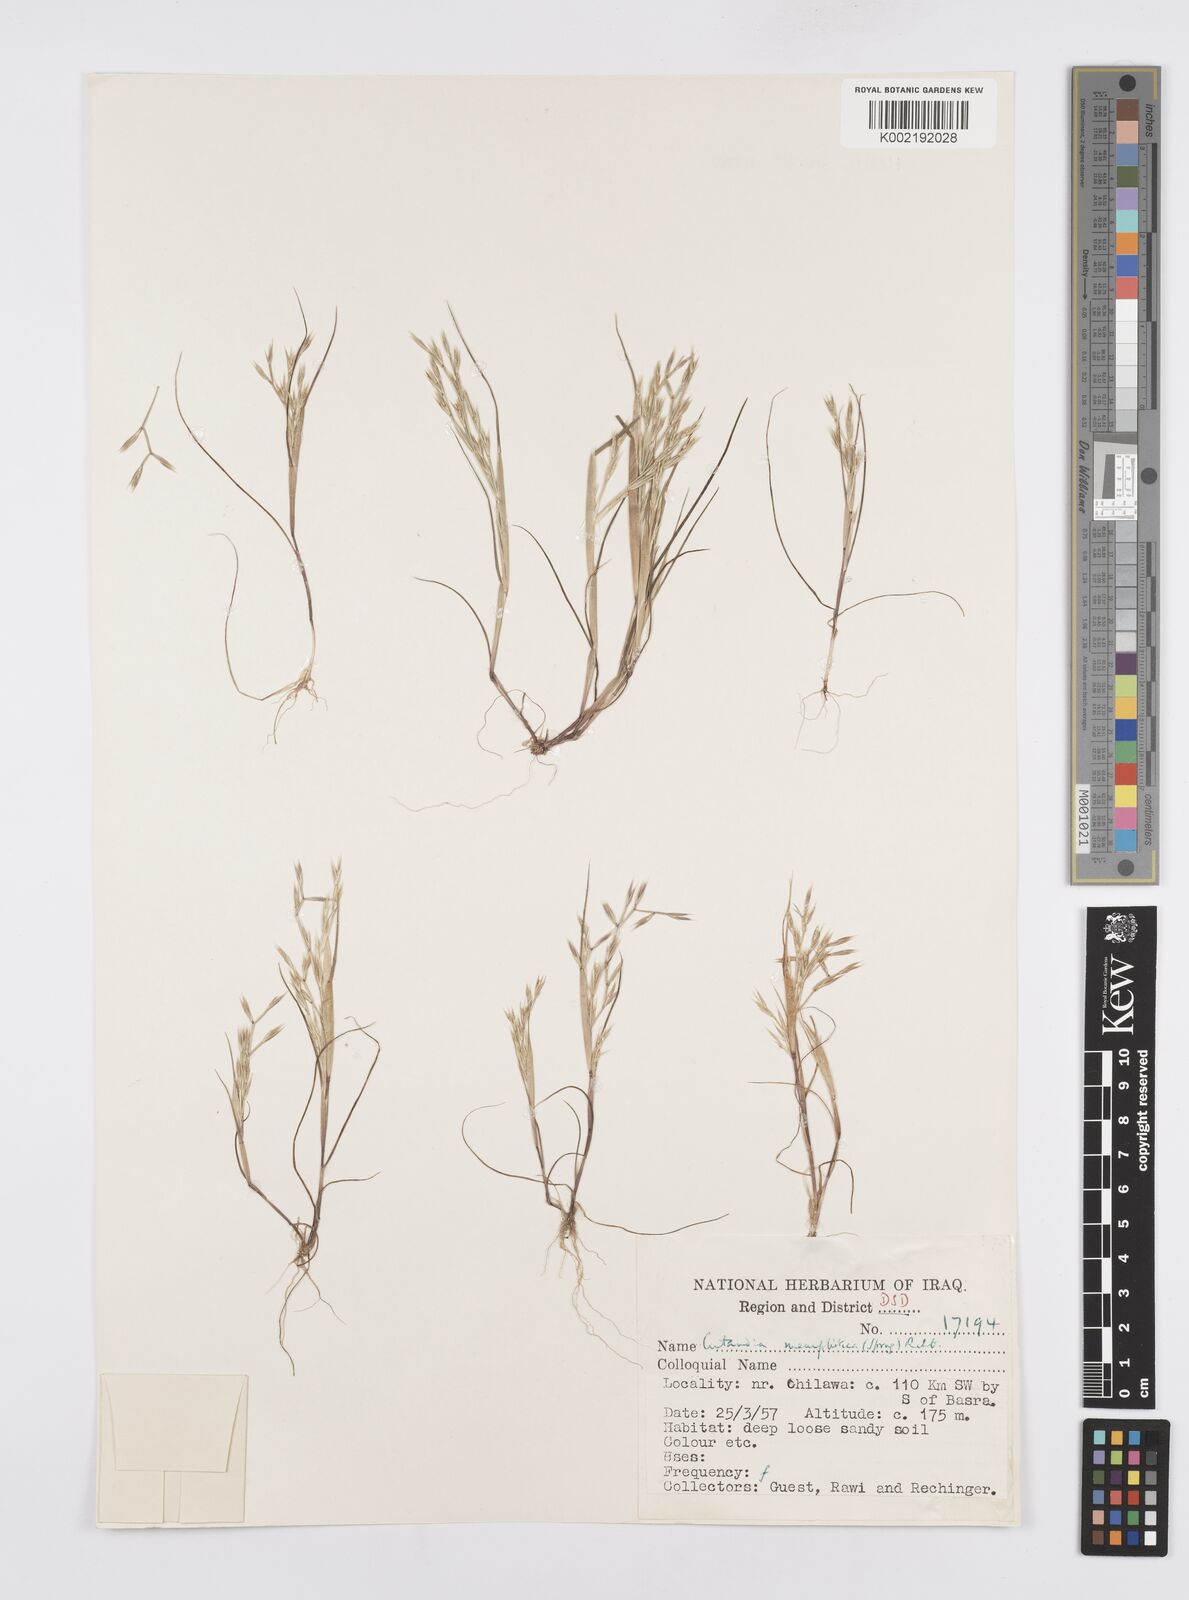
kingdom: Plantae
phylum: Tracheophyta
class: Liliopsida
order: Poales
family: Poaceae
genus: Cutandia
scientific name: Cutandia memphitica
